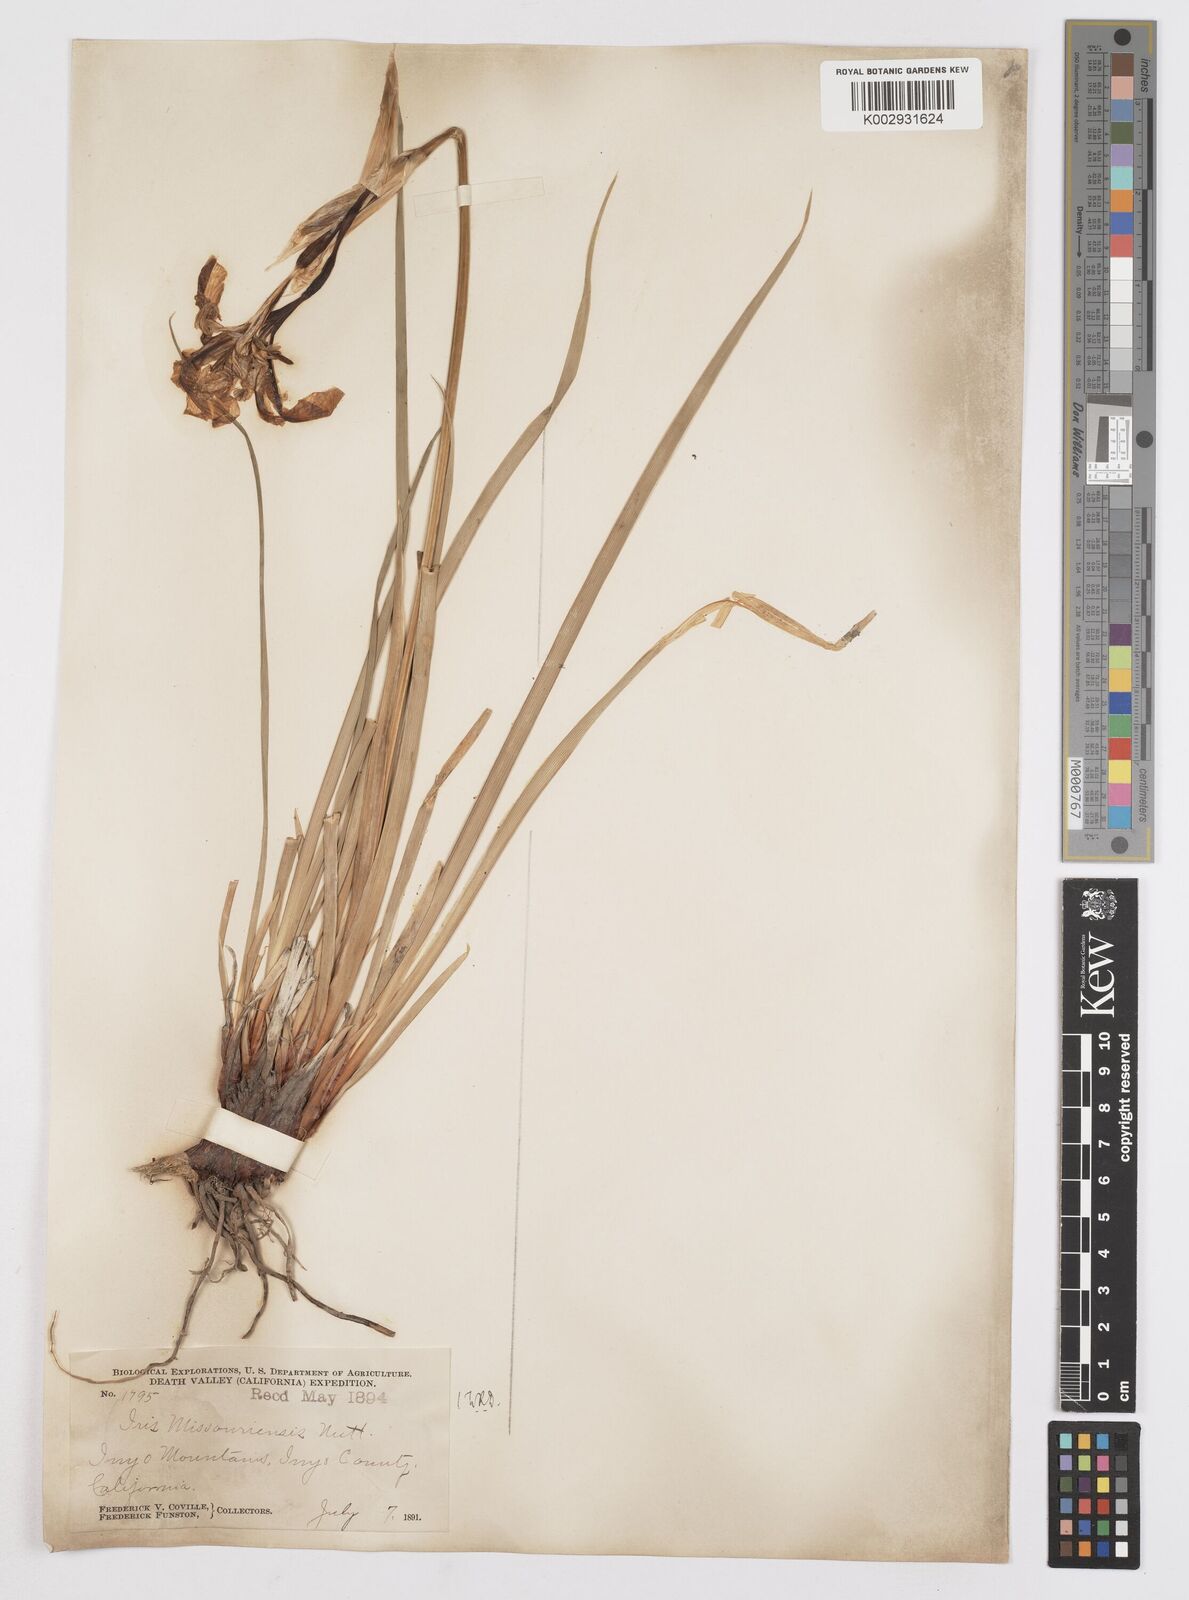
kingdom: Plantae
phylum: Tracheophyta
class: Liliopsida
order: Asparagales
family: Iridaceae
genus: Iris
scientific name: Iris missouriensis
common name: Rocky mountain iris
